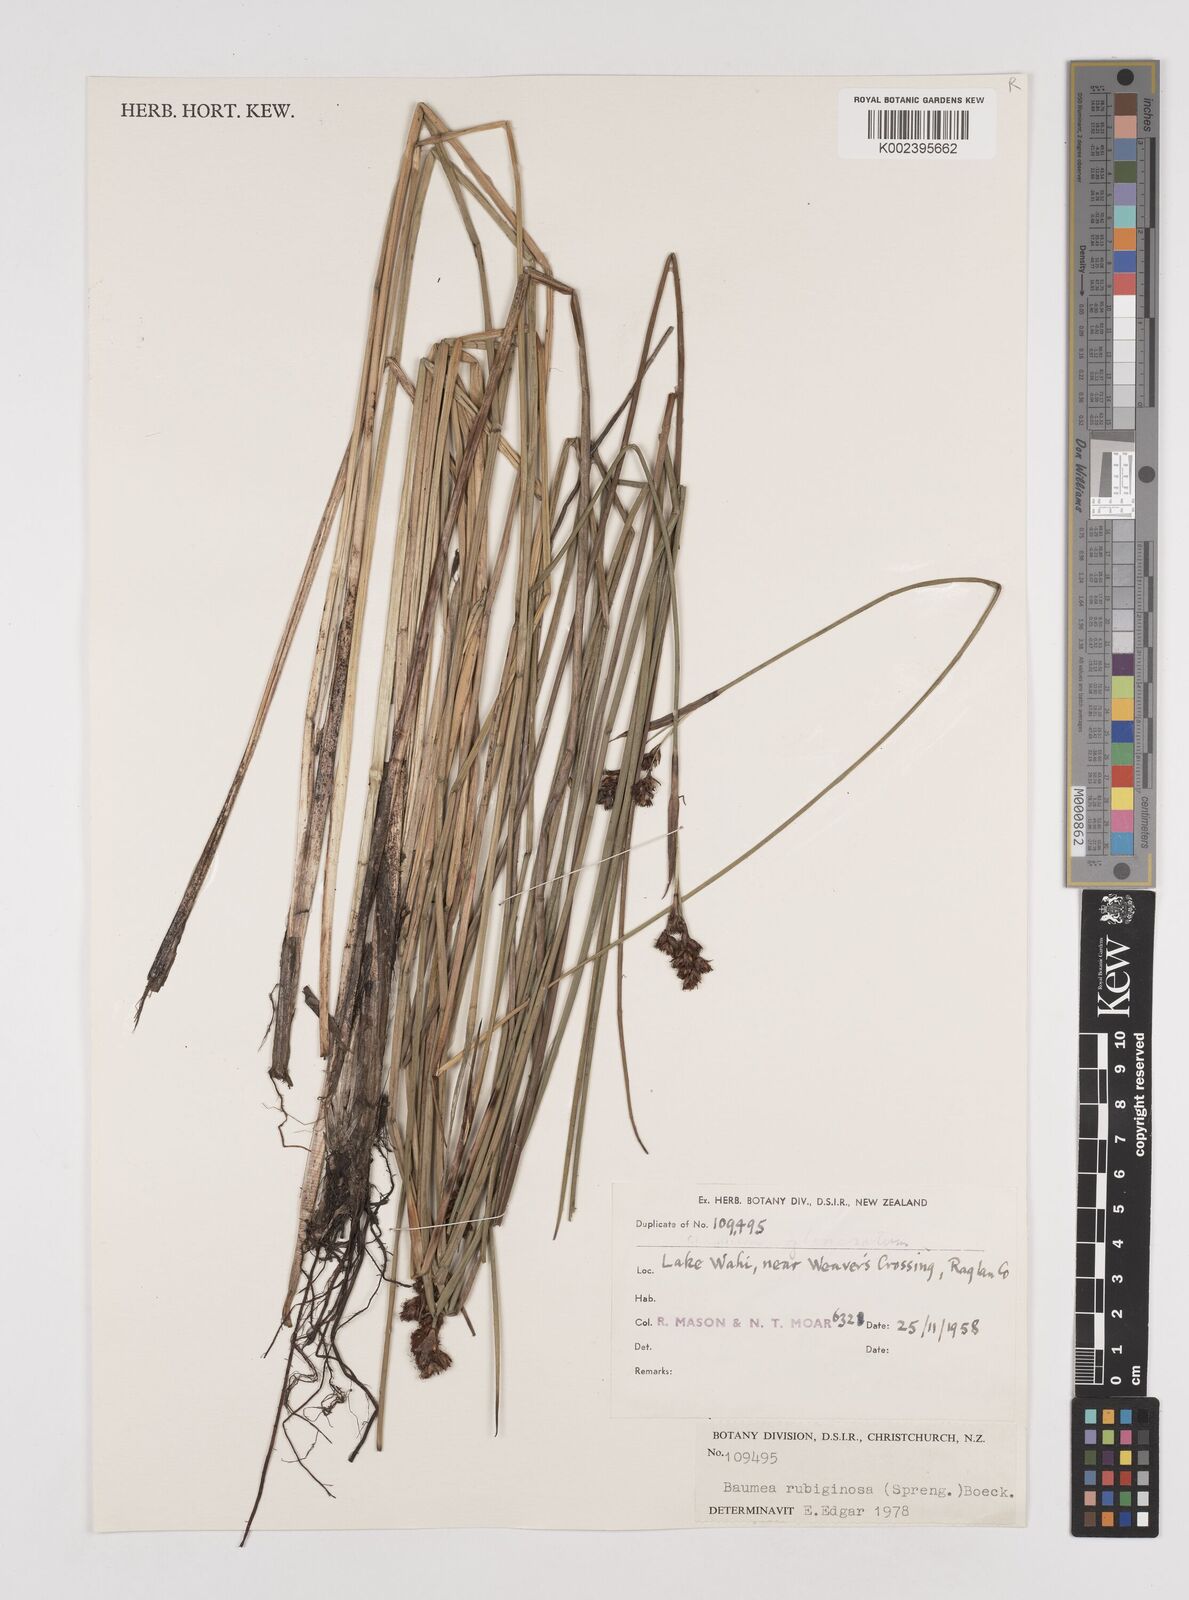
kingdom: Plantae
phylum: Tracheophyta
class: Liliopsida
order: Poales
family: Cyperaceae
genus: Machaerina
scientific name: Machaerina rubiginosa
